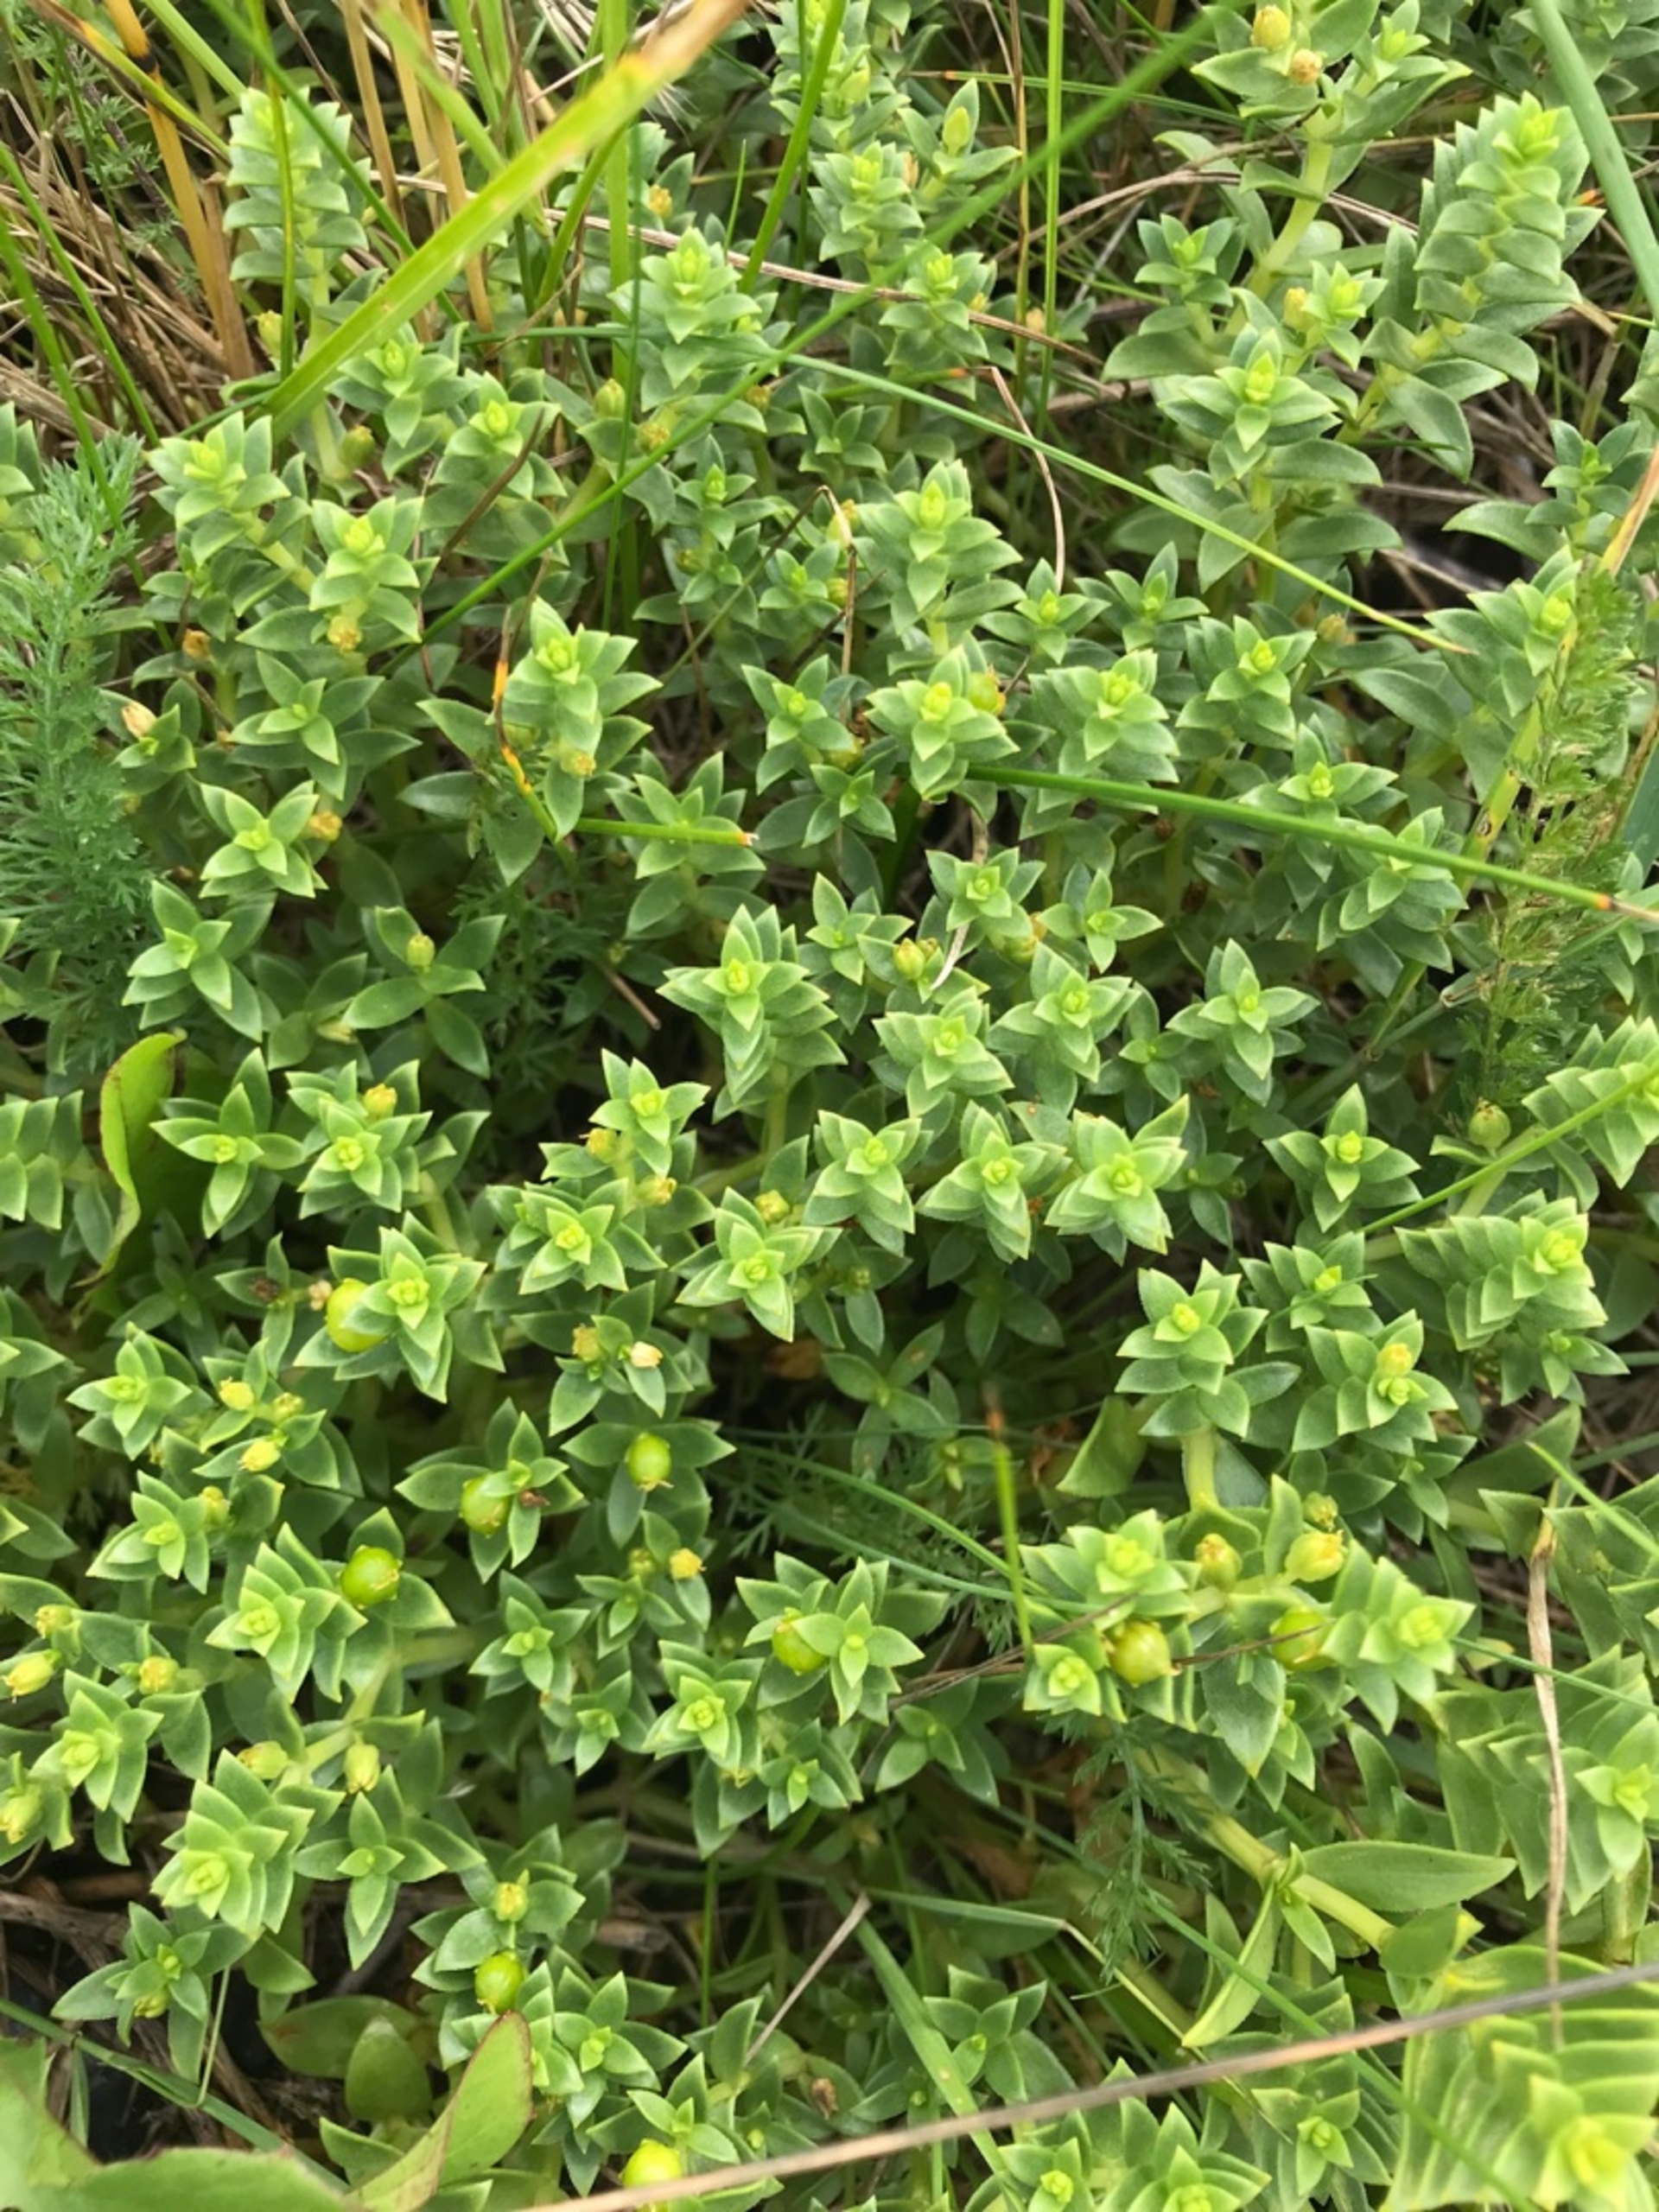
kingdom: Plantae
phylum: Tracheophyta
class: Magnoliopsida
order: Caryophyllales
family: Caryophyllaceae
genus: Honckenya
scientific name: Honckenya peploides
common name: Strandarve
